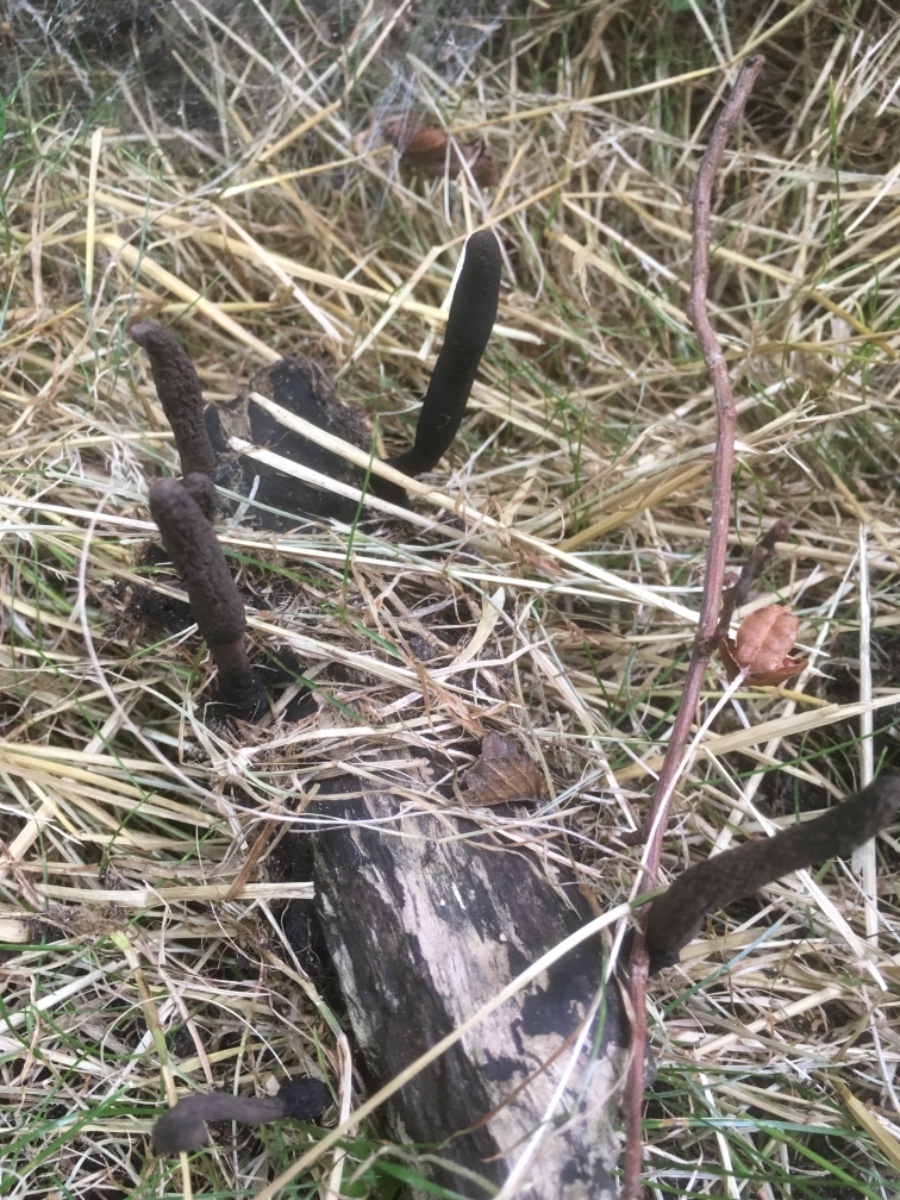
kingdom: Fungi
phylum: Ascomycota
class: Sordariomycetes
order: Xylariales
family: Xylariaceae
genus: Xylaria
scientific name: Xylaria longipes
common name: slank stødsvamp
